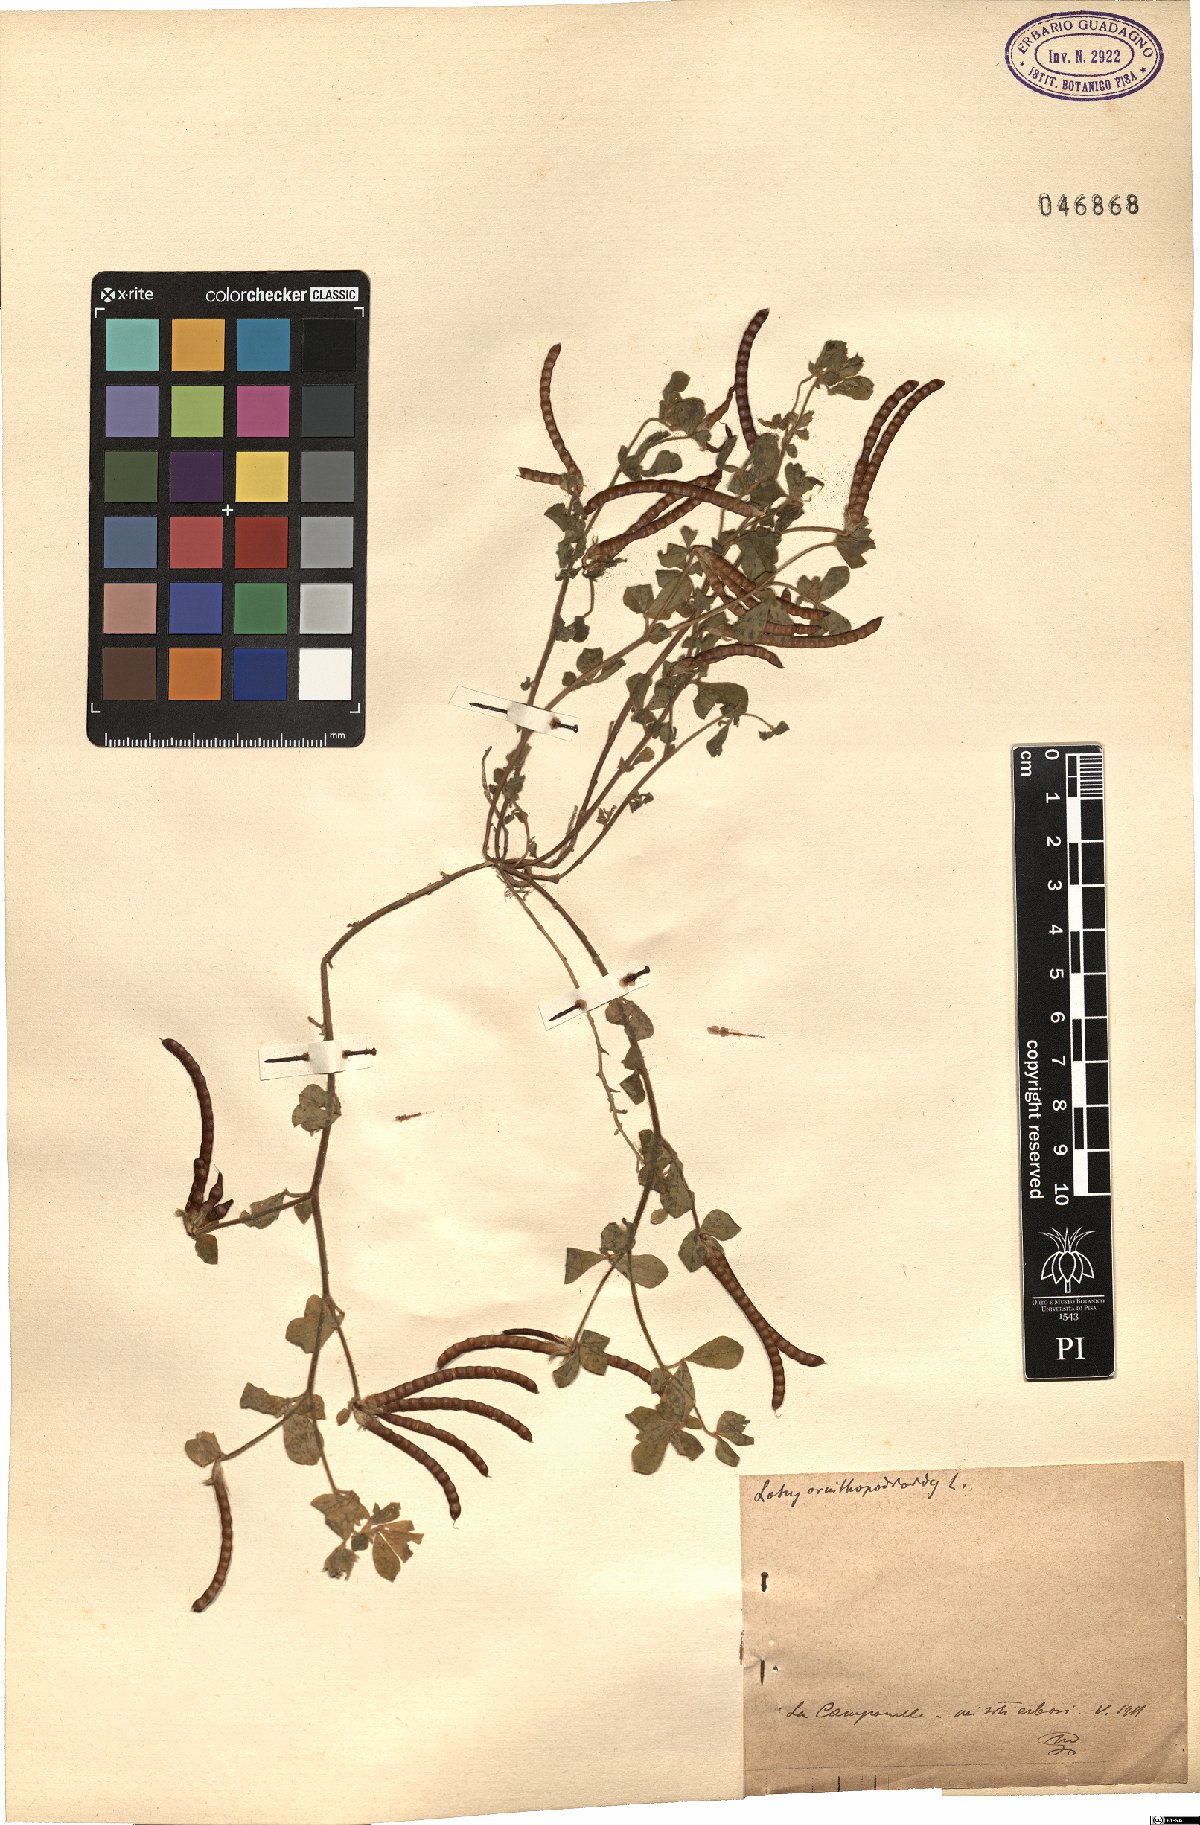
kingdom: Plantae
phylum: Tracheophyta
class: Magnoliopsida
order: Fabales
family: Fabaceae
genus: Lotus
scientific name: Lotus ornithopodioides
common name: Southern bird's-foot trefoil
